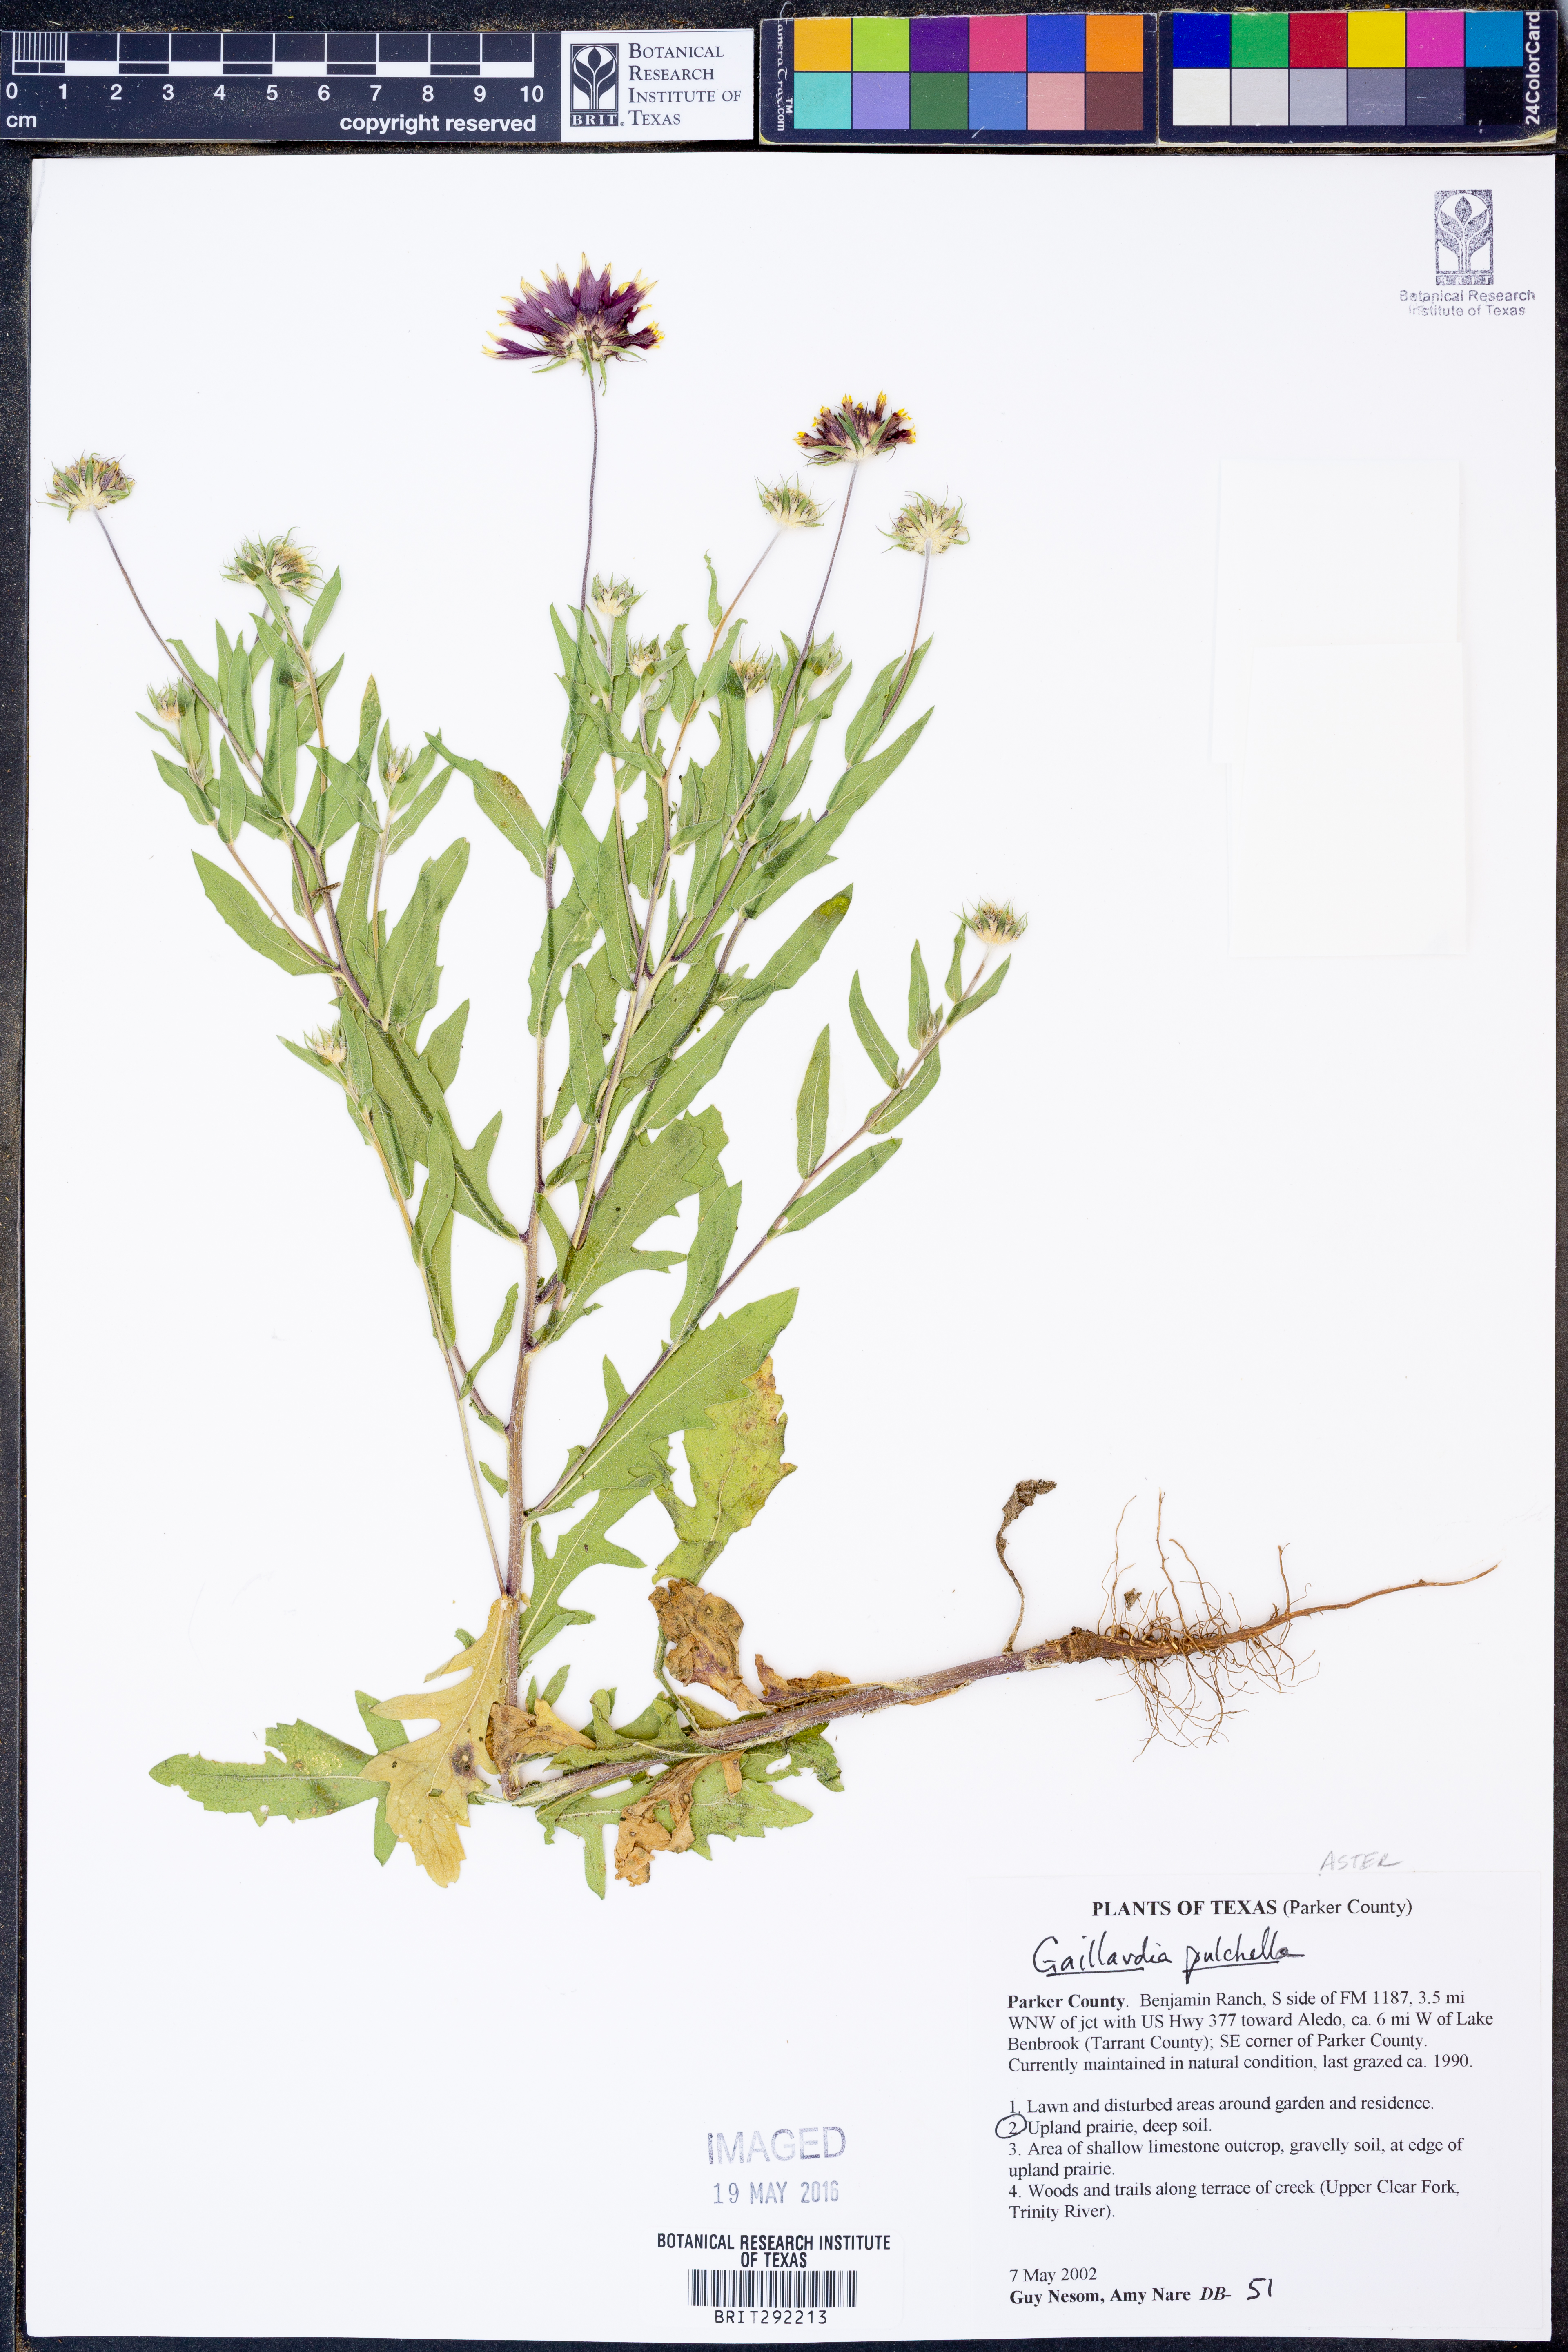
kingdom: Plantae
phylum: Tracheophyta
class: Magnoliopsida
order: Asterales
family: Asteraceae
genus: Gaillardia
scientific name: Gaillardia pulchella
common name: Firewheel
